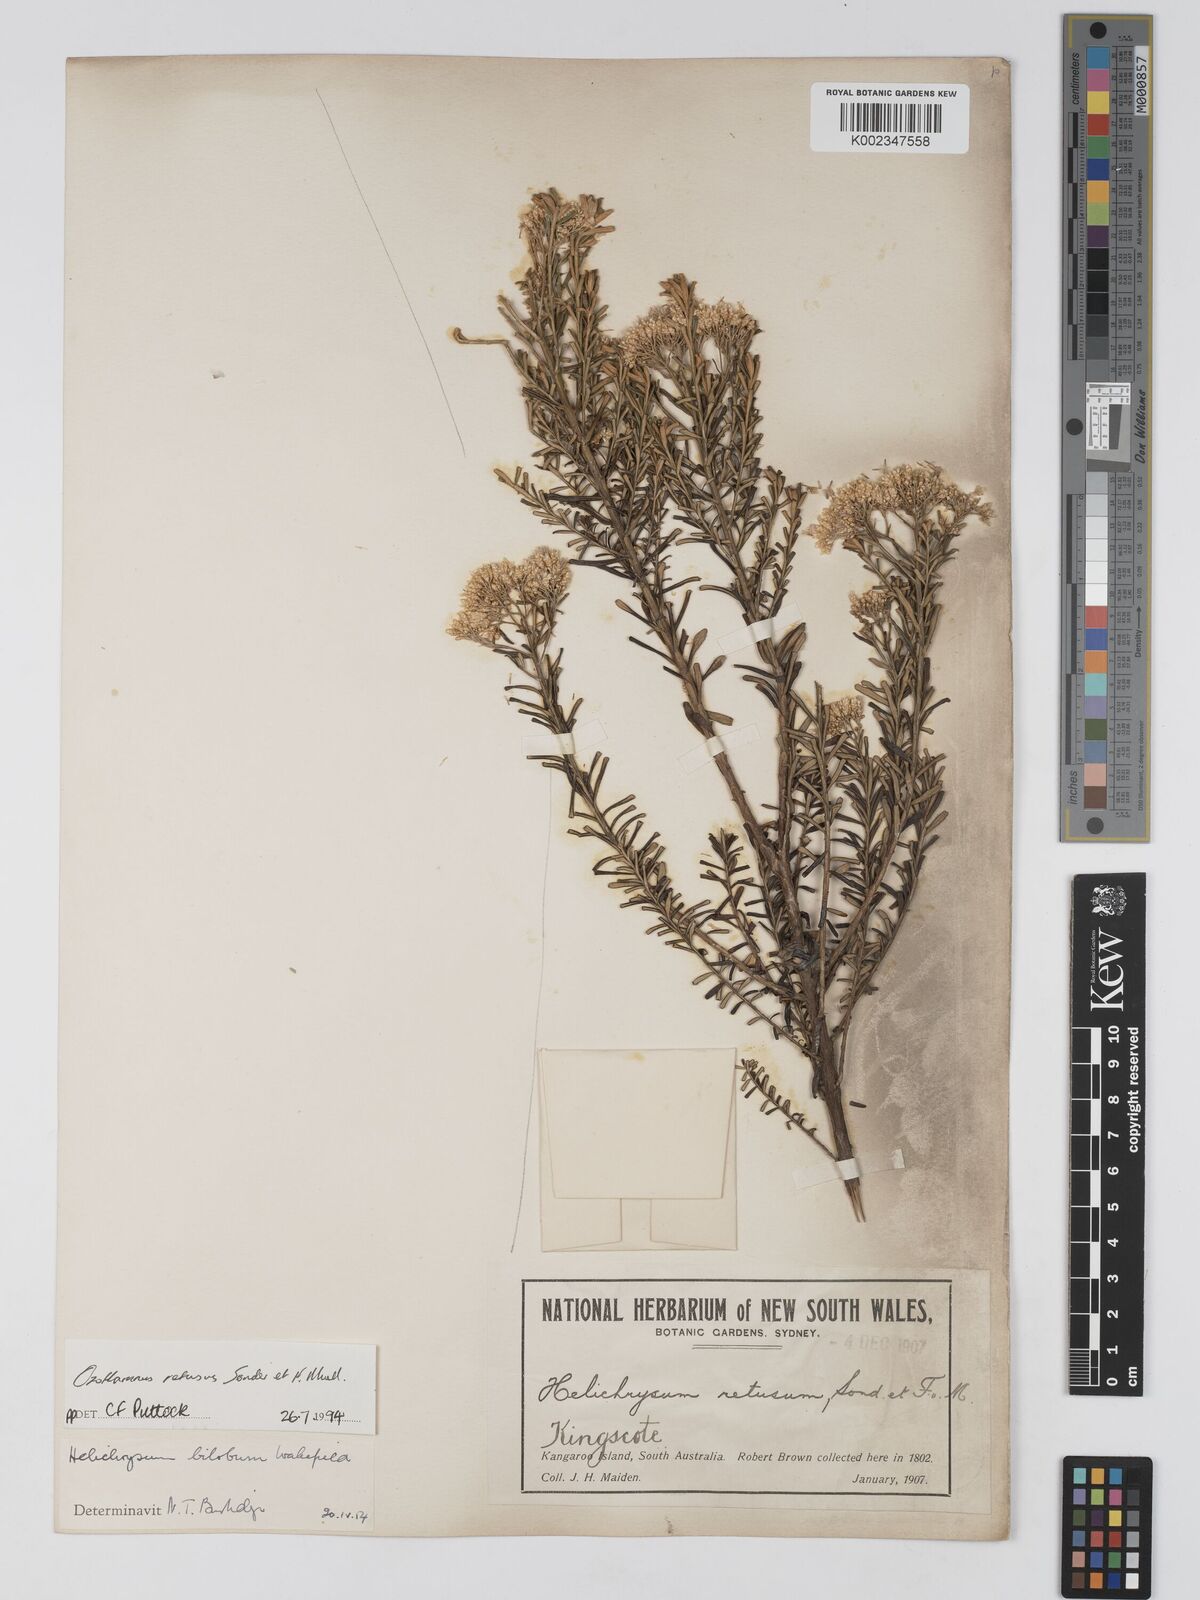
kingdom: Plantae
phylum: Tracheophyta
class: Magnoliopsida
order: Asterales
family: Asteraceae
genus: Ozothamnus
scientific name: Ozothamnus adnatus
